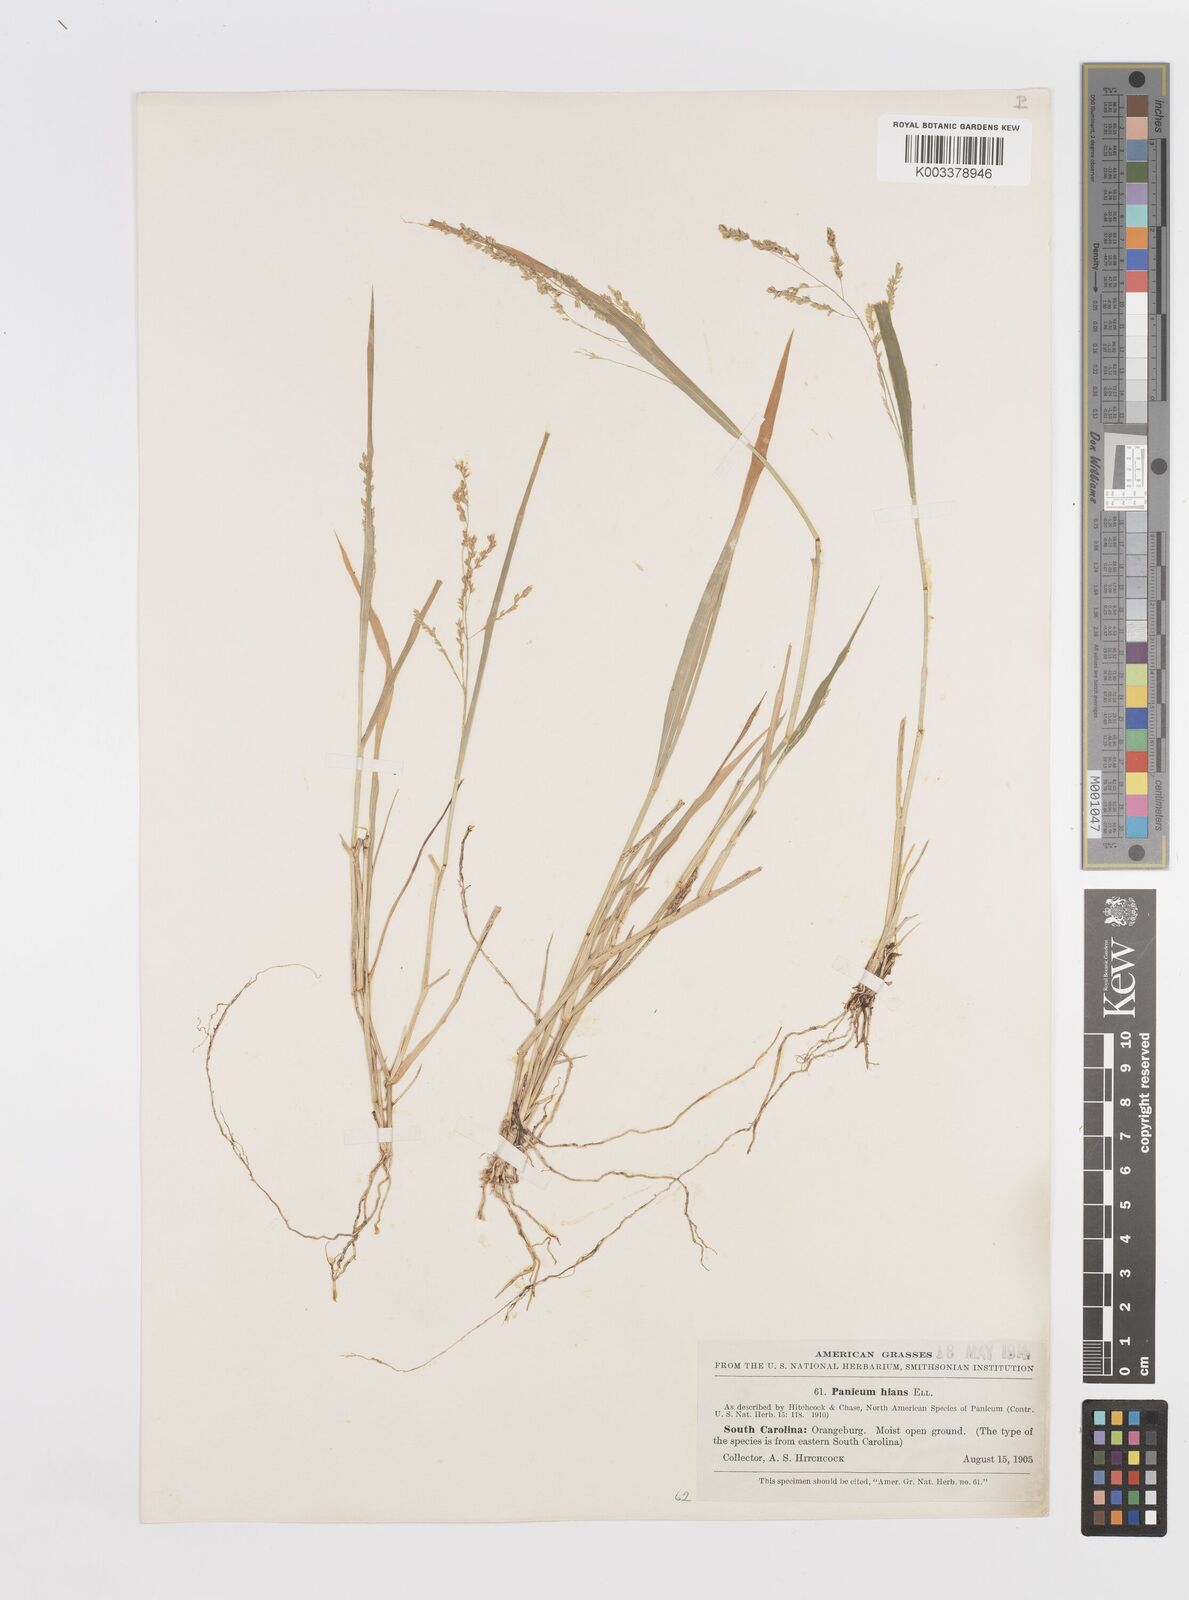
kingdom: Plantae
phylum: Tracheophyta
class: Liliopsida
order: Poales
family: Poaceae
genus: Steinchisma
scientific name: Steinchisma hians
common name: Gaping panic grass
